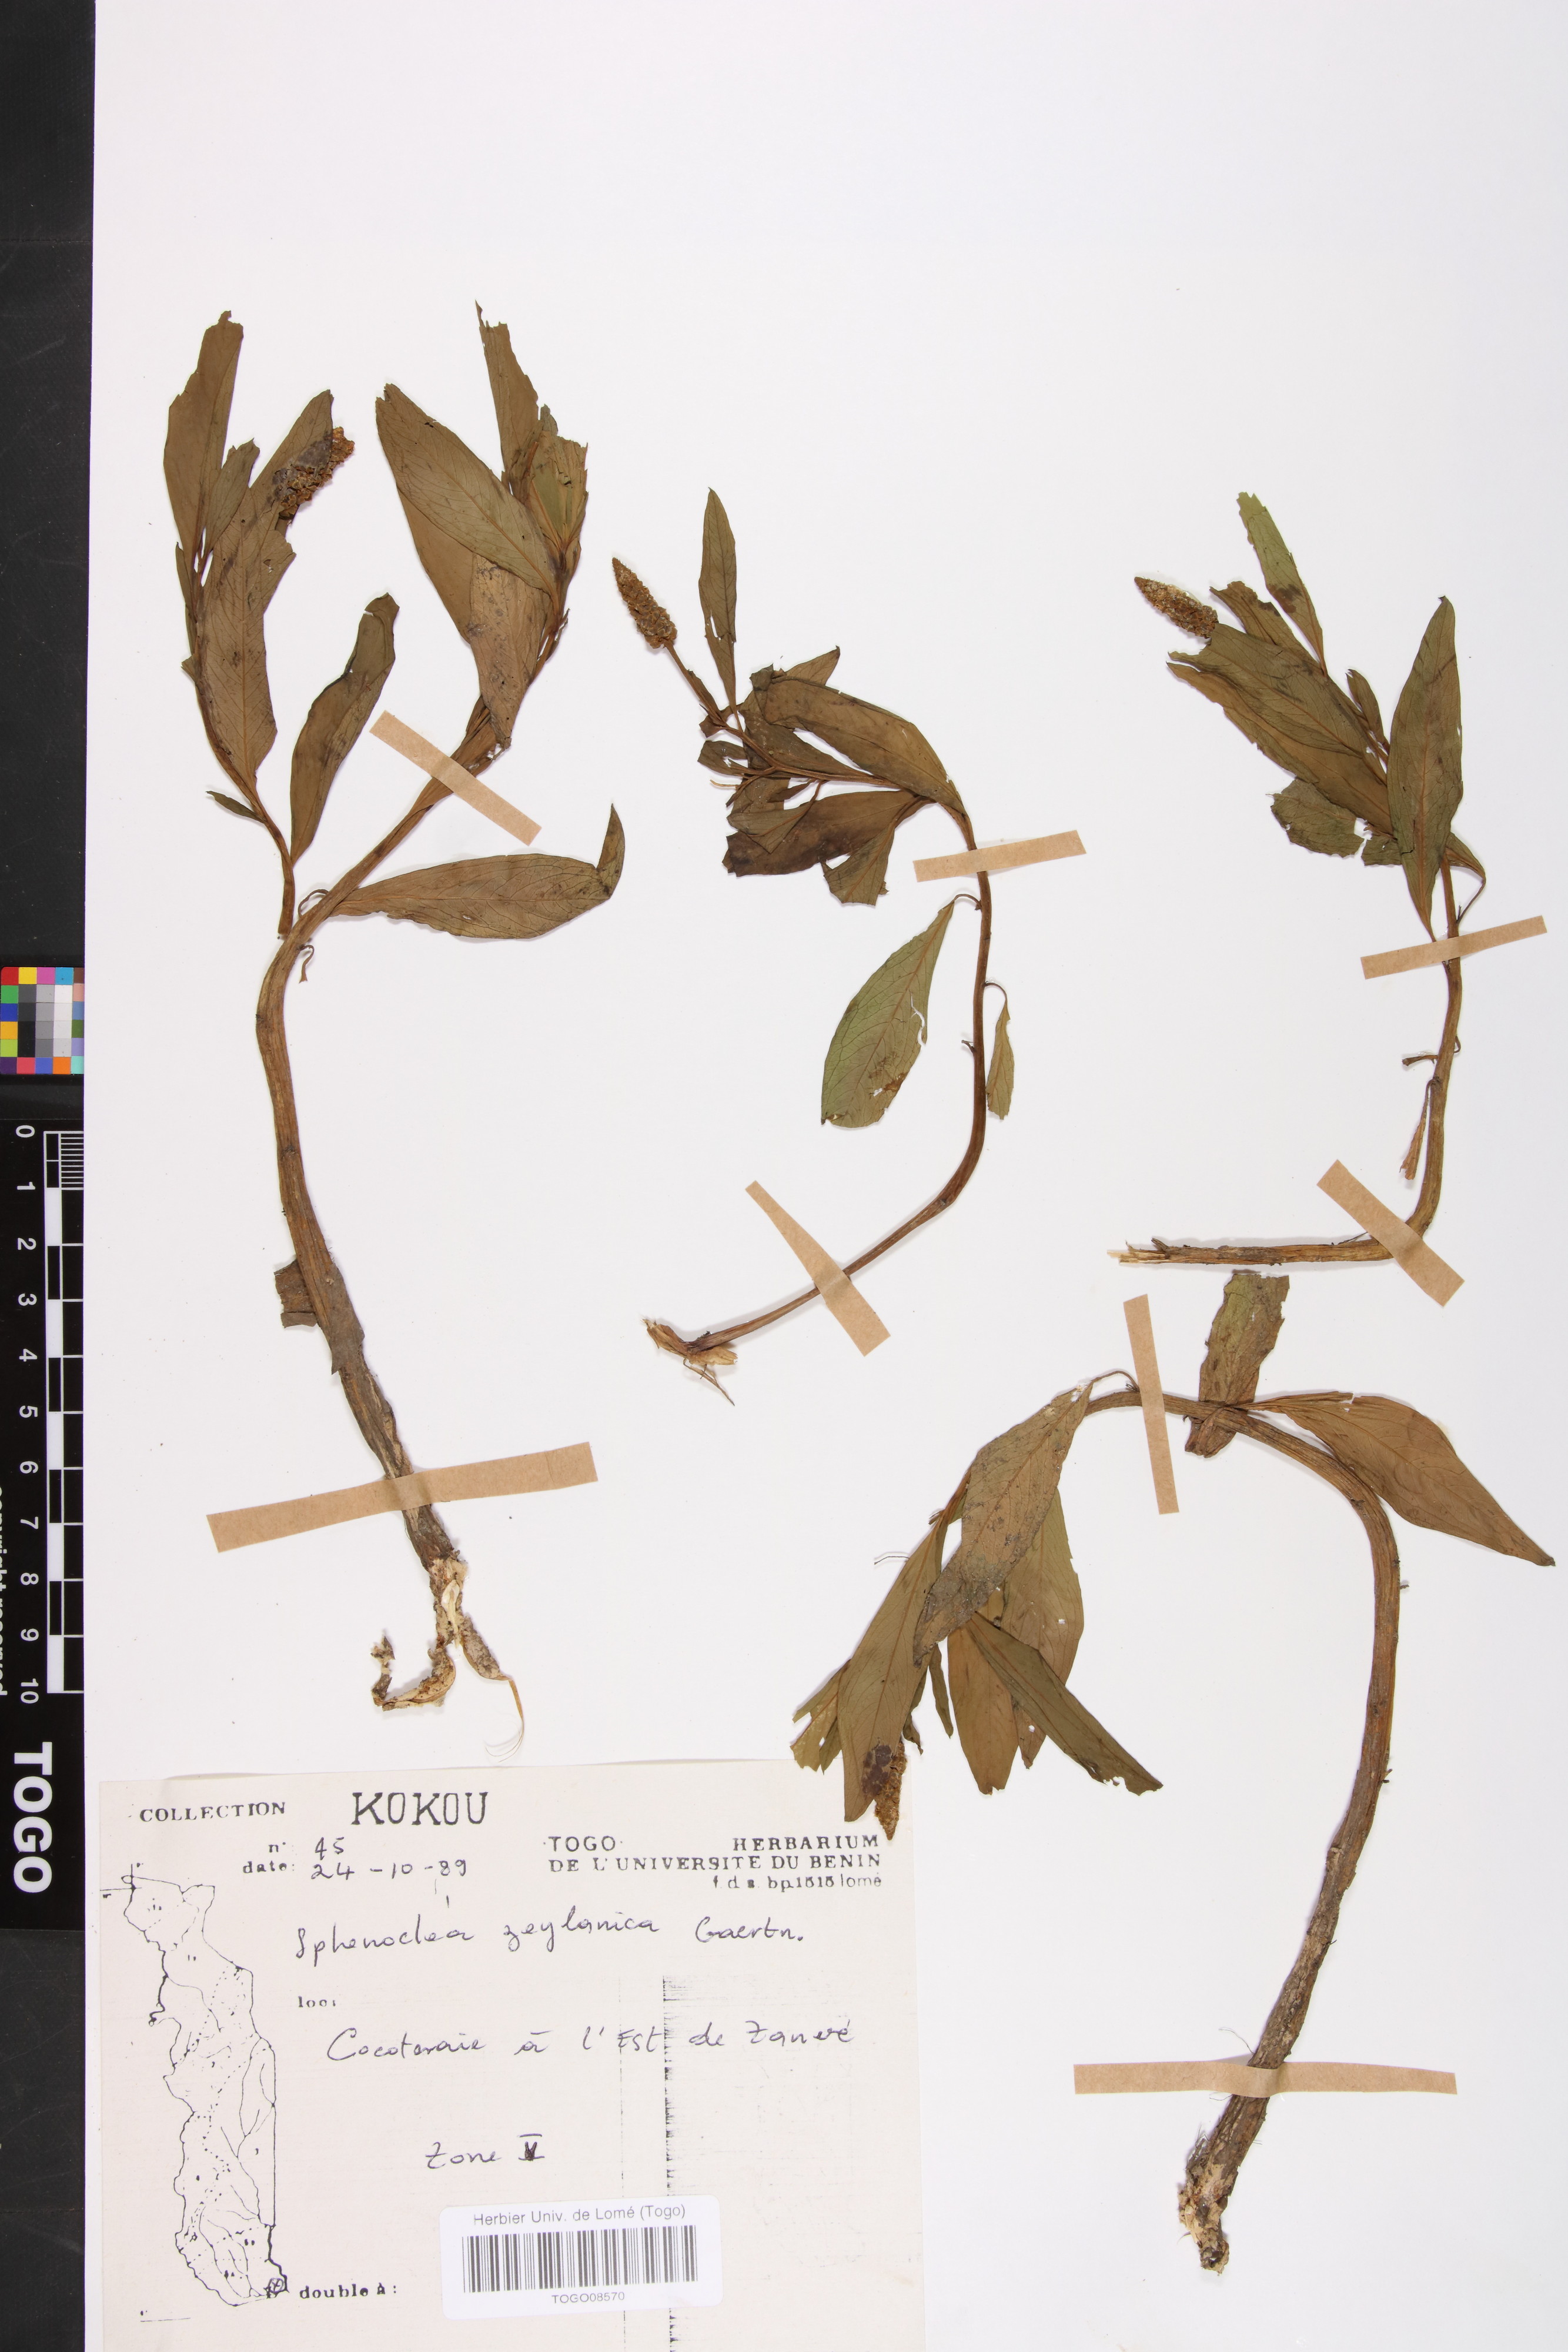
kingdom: Plantae
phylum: Tracheophyta
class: Magnoliopsida
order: Solanales
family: Sphenocleaceae
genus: Sphenoclea
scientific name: Sphenoclea zeylanica
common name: Chickenspike
